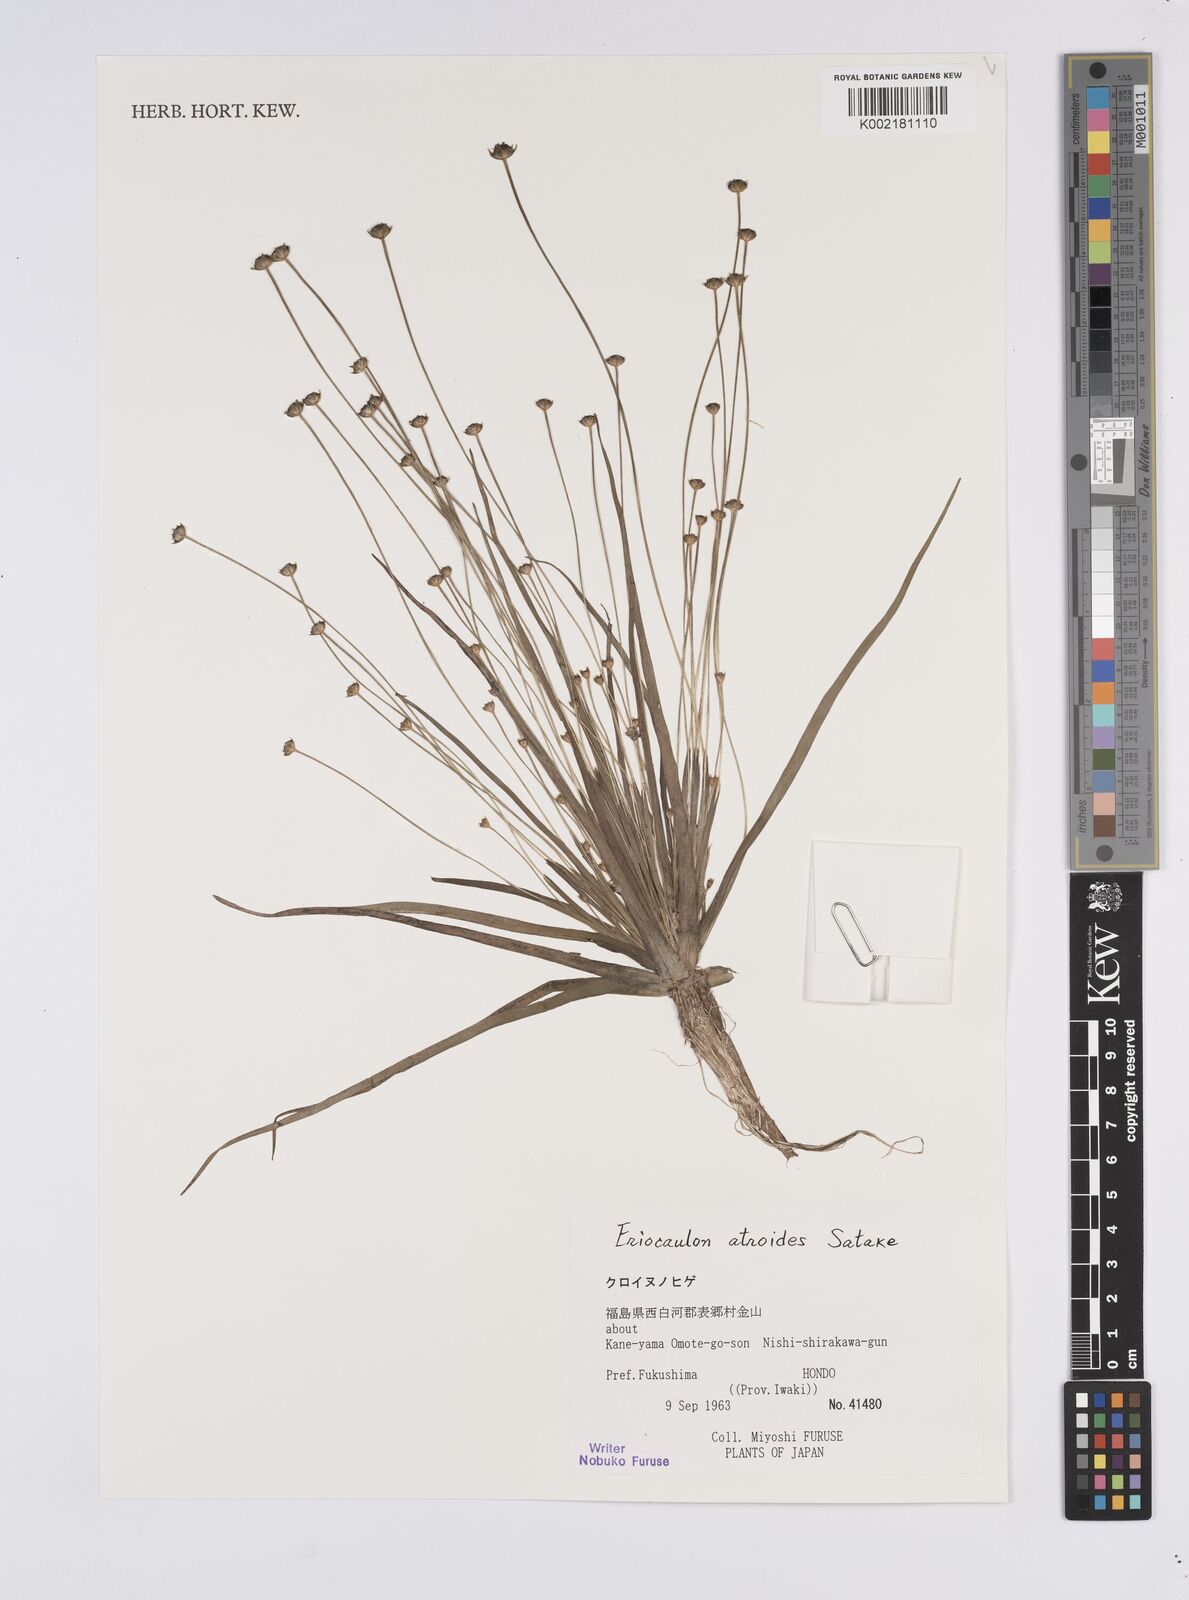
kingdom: Plantae
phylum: Tracheophyta
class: Liliopsida
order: Poales
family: Eriocaulaceae
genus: Eriocaulon
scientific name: Eriocaulon miquelianum
